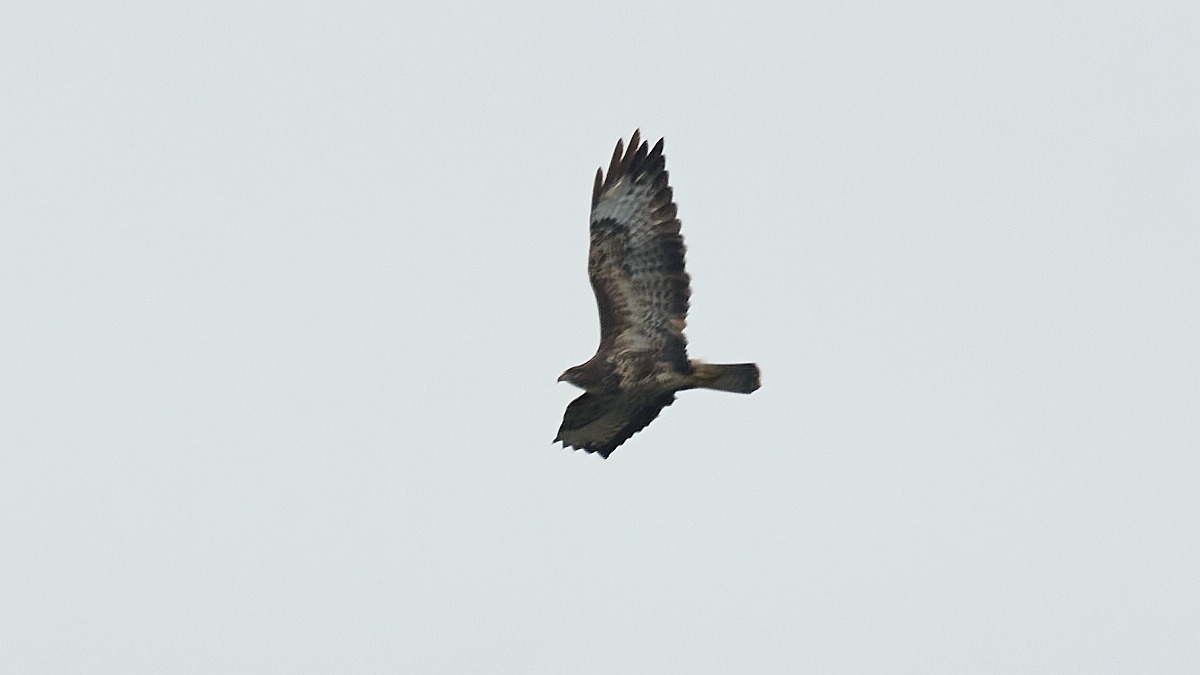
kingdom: Animalia
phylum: Chordata
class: Aves
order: Accipitriformes
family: Accipitridae
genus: Buteo
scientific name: Buteo buteo
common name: Musvåge
